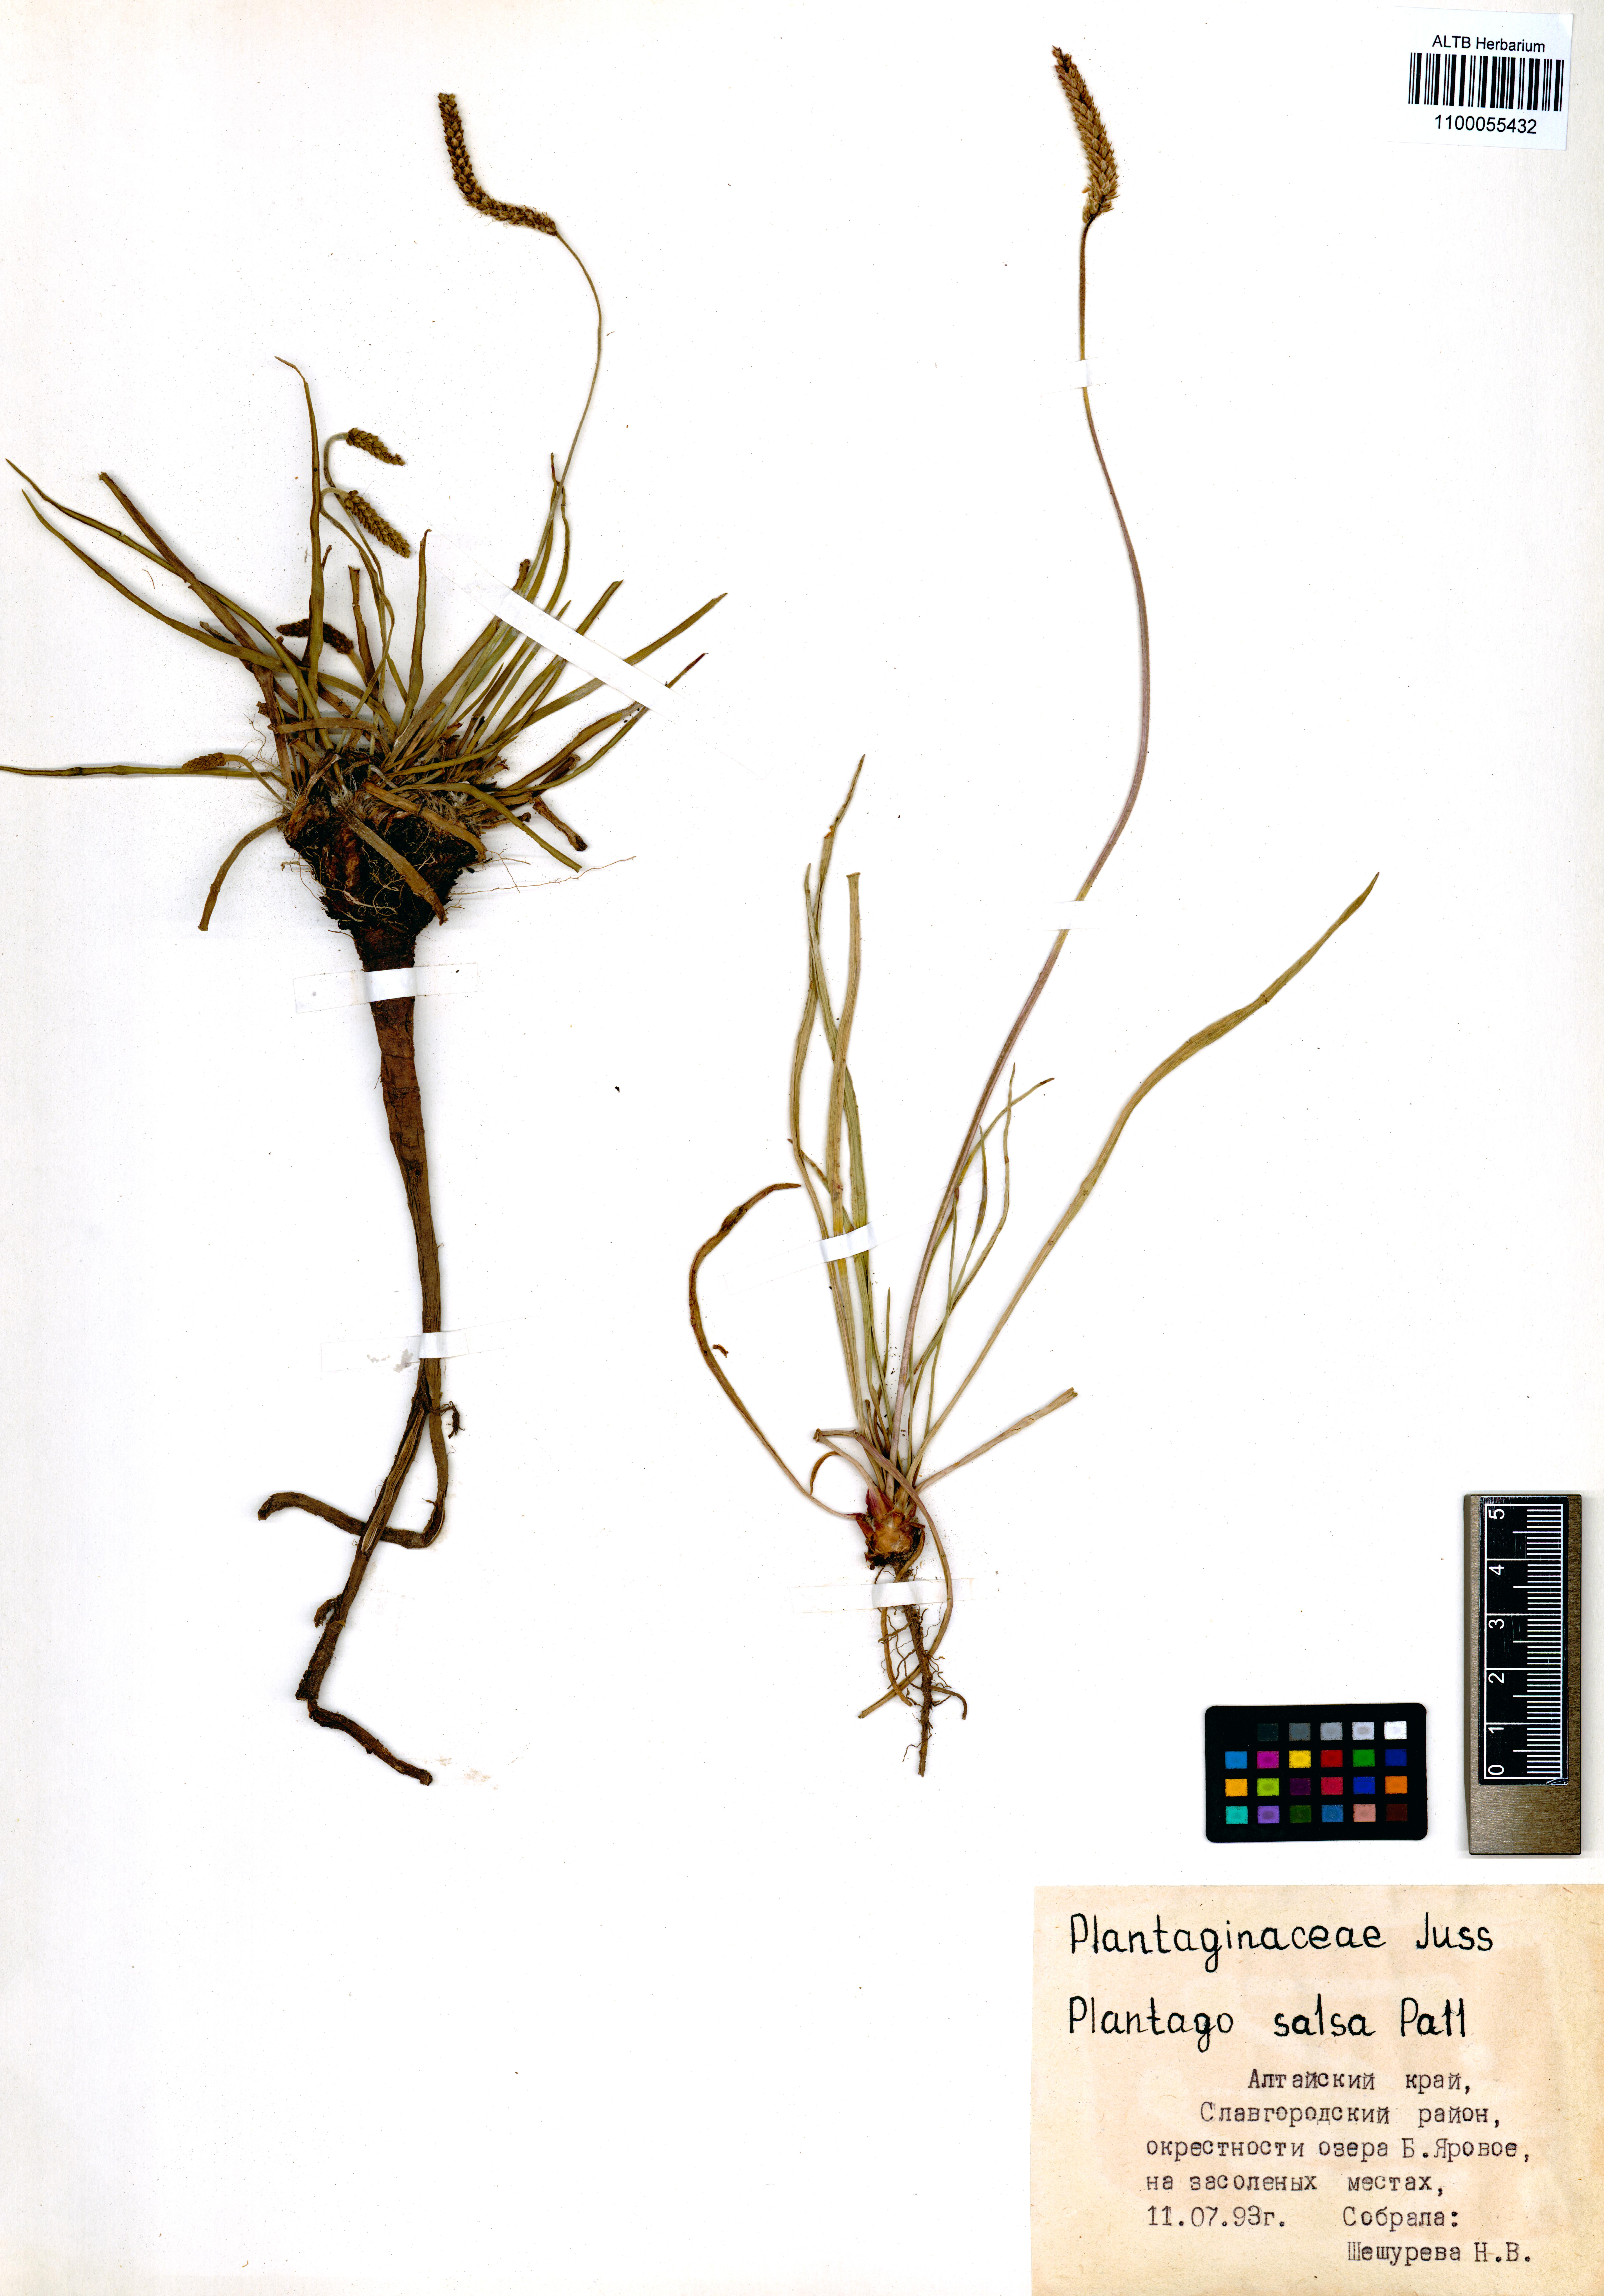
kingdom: Plantae
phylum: Tracheophyta
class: Magnoliopsida
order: Lamiales
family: Plantaginaceae
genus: Plantago
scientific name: Plantago salsa
